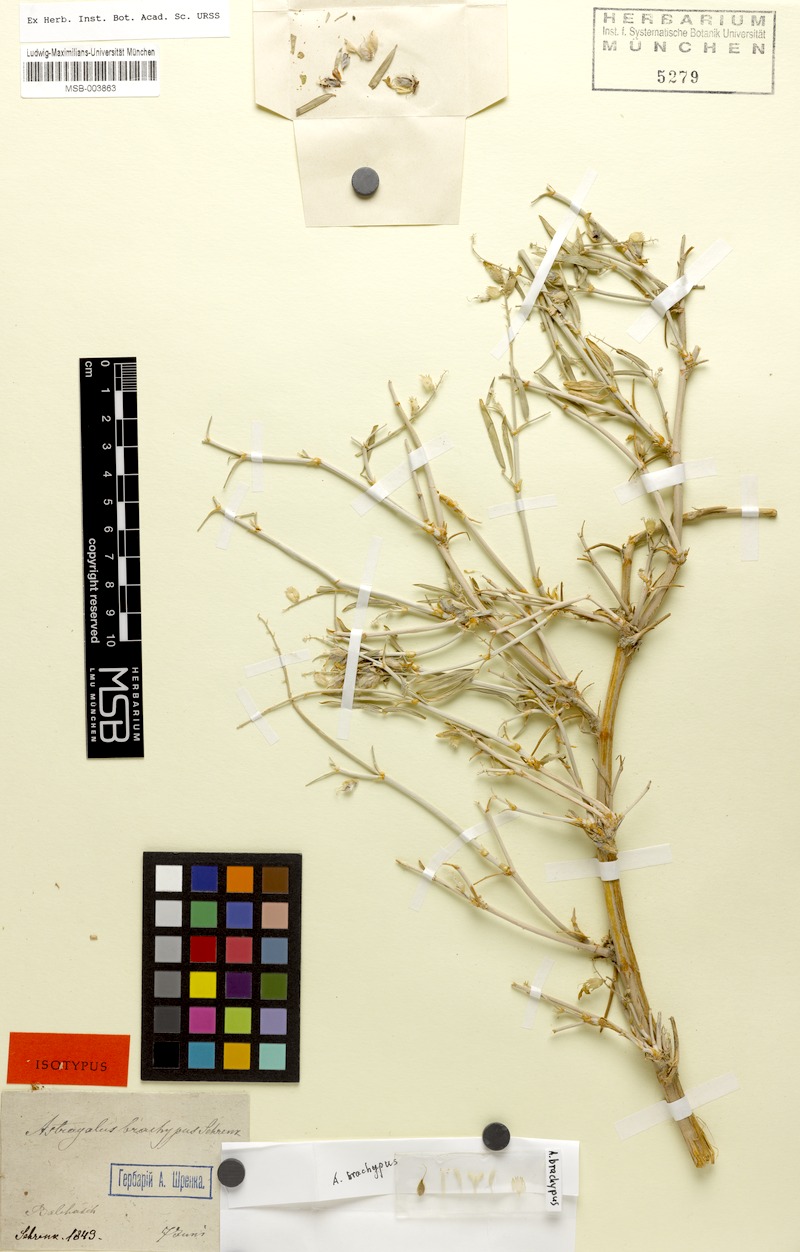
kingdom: Plantae
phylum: Tracheophyta
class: Magnoliopsida
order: Fabales
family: Fabaceae
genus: Astragalus
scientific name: Astragalus brachypus
